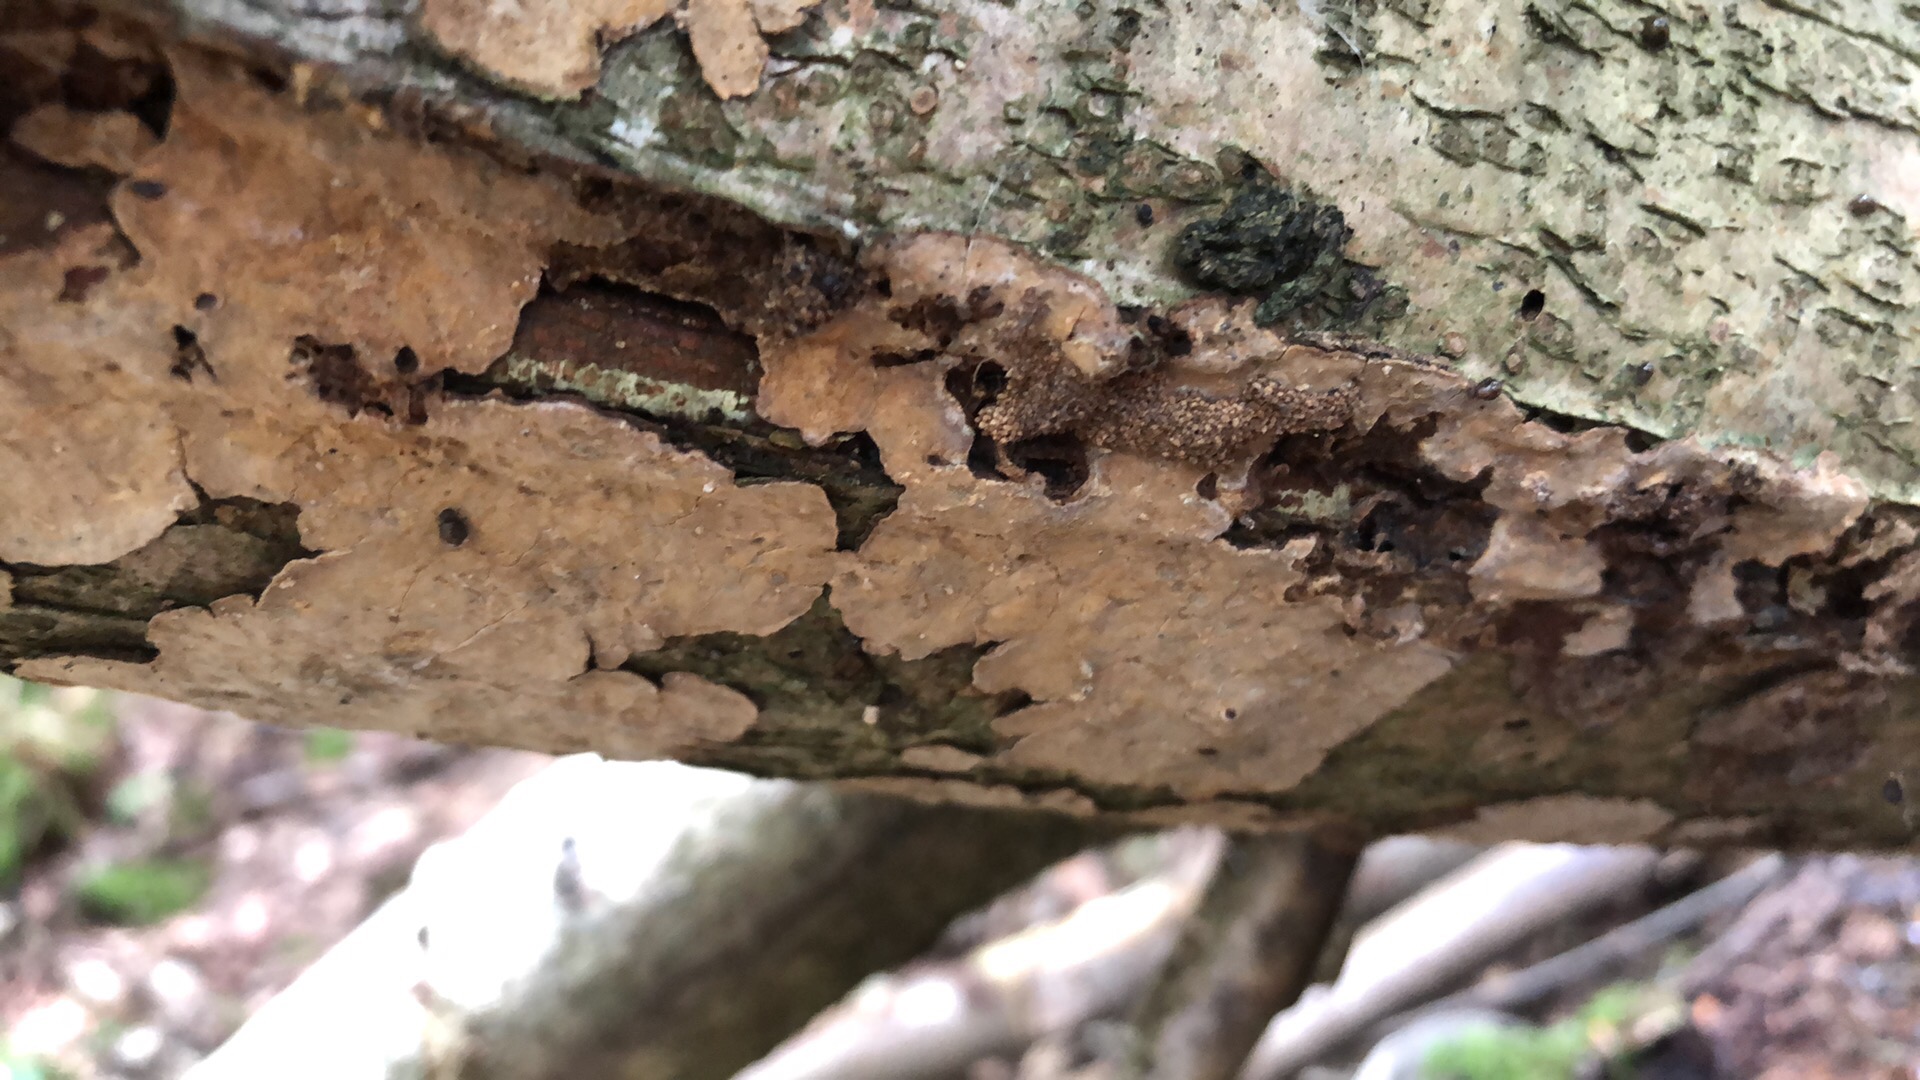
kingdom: Fungi
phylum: Basidiomycota
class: Agaricomycetes
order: Russulales
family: Stereaceae
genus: Stereum
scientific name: Stereum rugosum
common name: rynket lædersvamp
